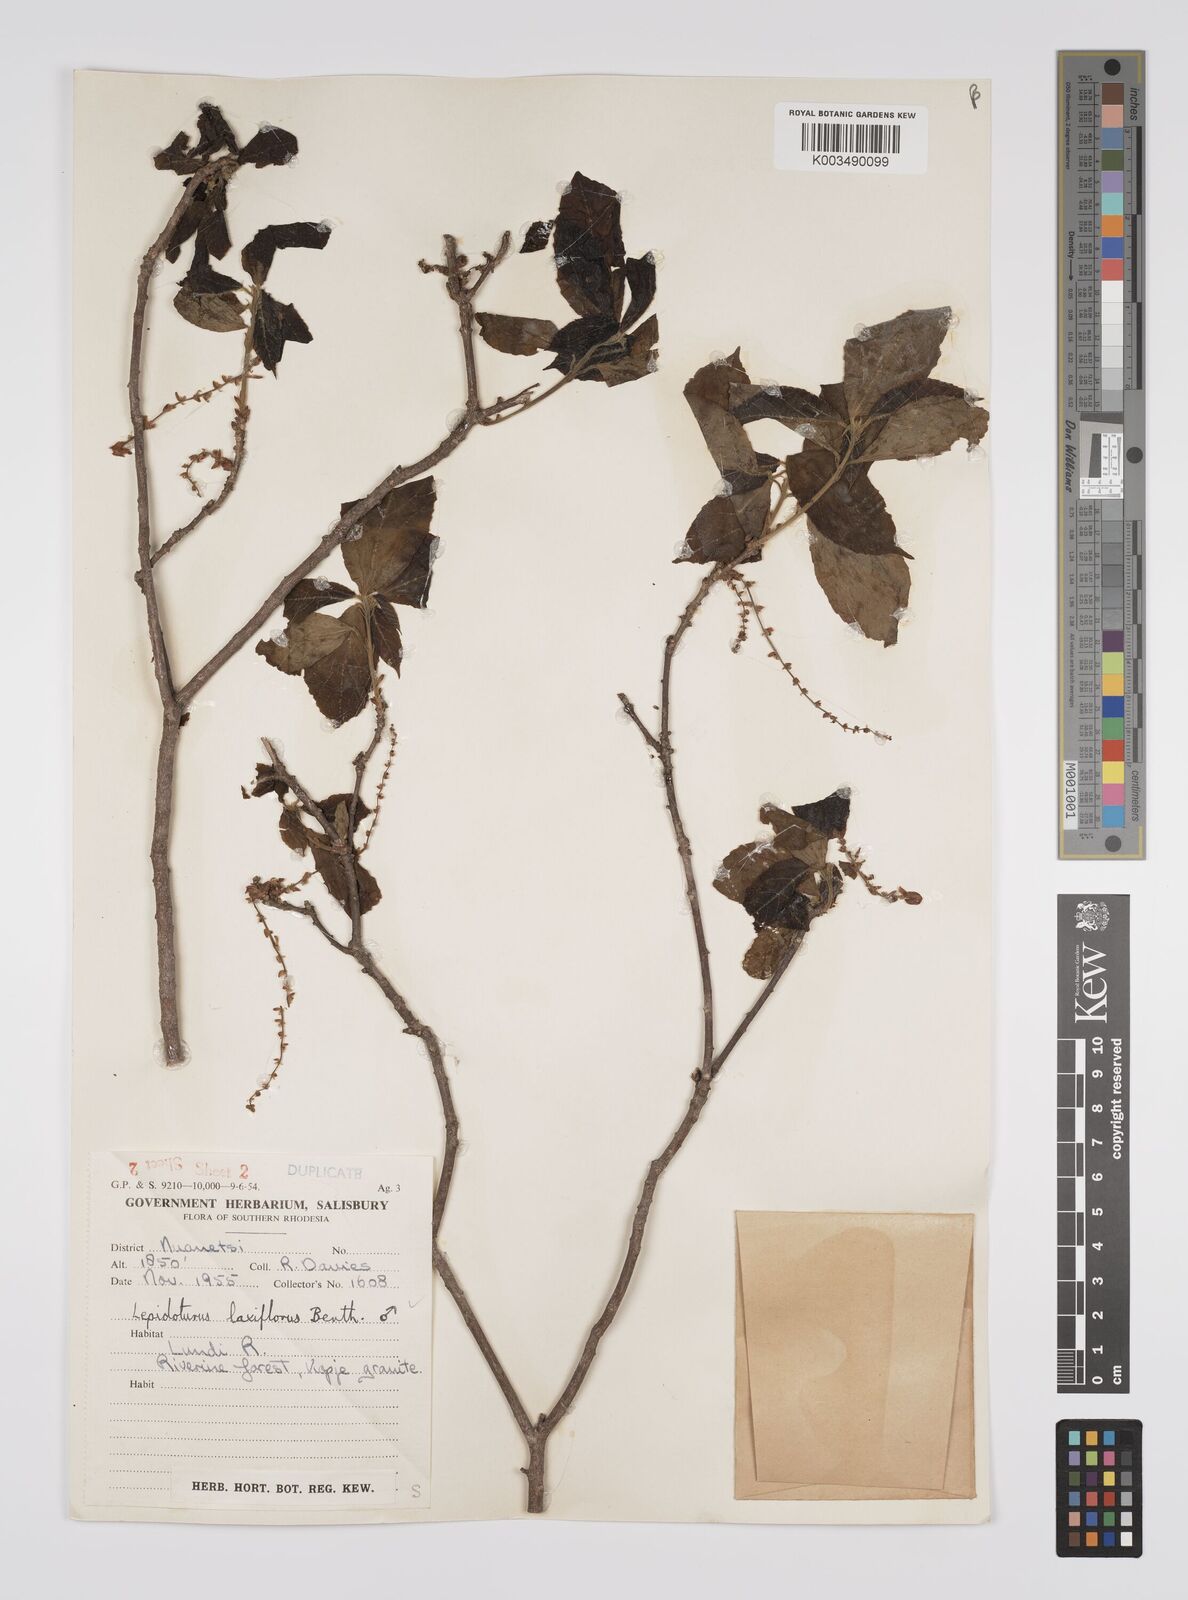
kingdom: Plantae
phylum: Tracheophyta
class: Magnoliopsida
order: Malpighiales
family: Euphorbiaceae
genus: Alchornea
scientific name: Alchornea laxiflora
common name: Lowveld bead-string
